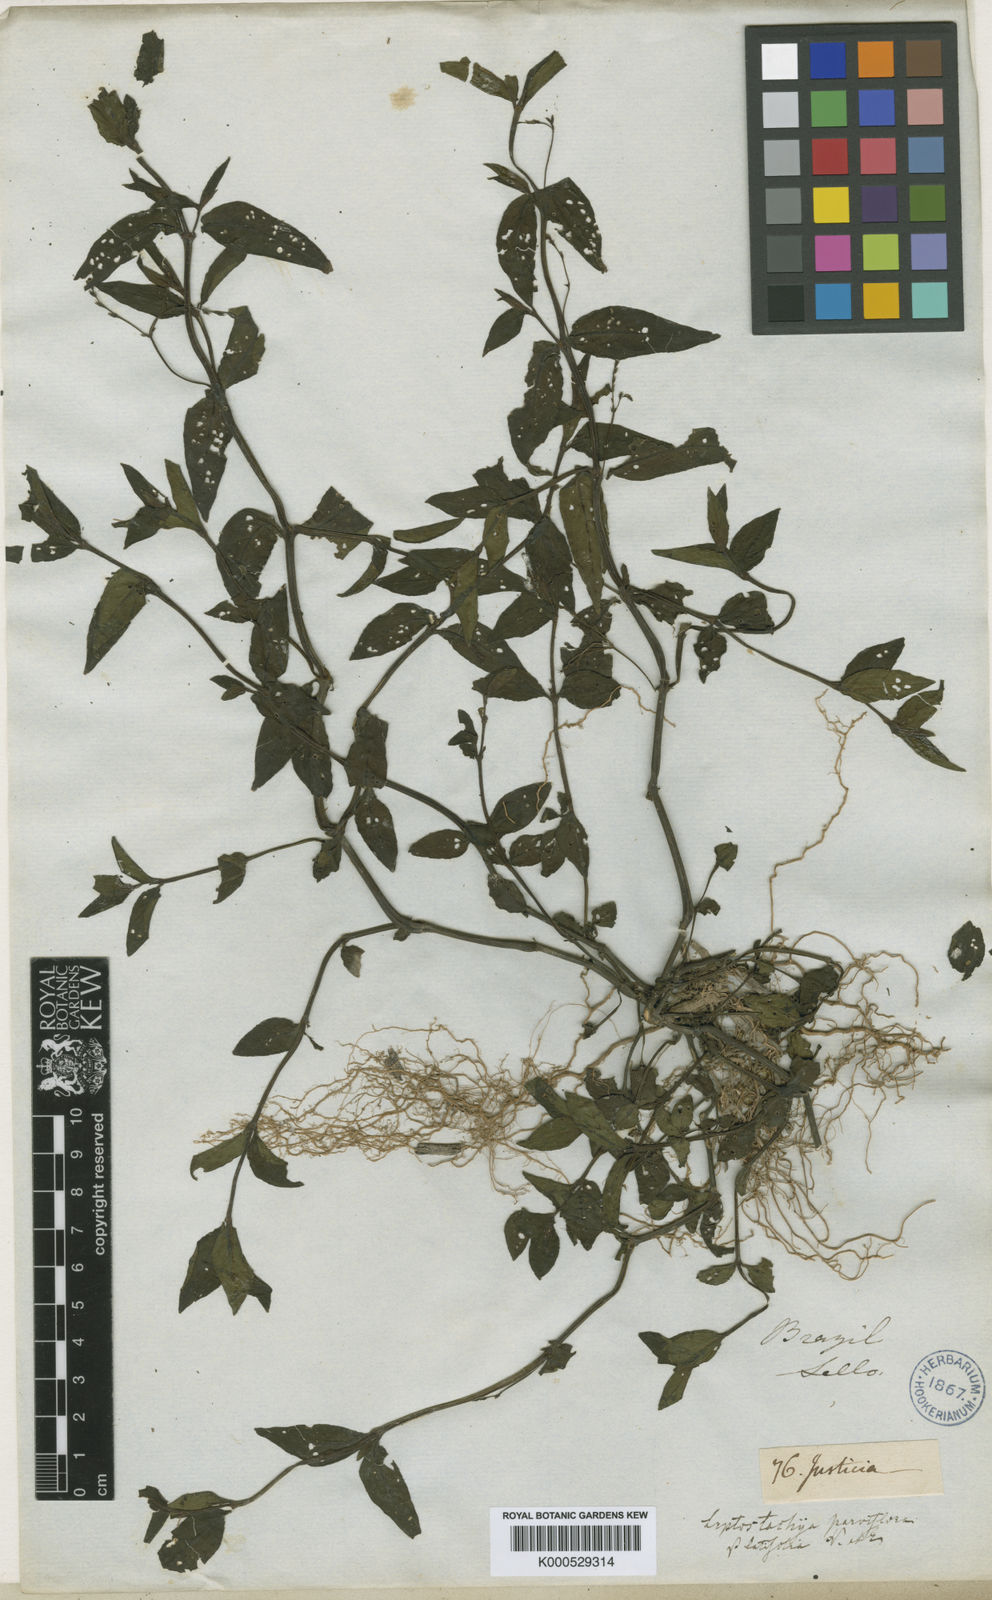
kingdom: Plantae
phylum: Tracheophyta
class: Magnoliopsida
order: Lamiales
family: Acanthaceae
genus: Dianthera
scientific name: Dianthera comata
